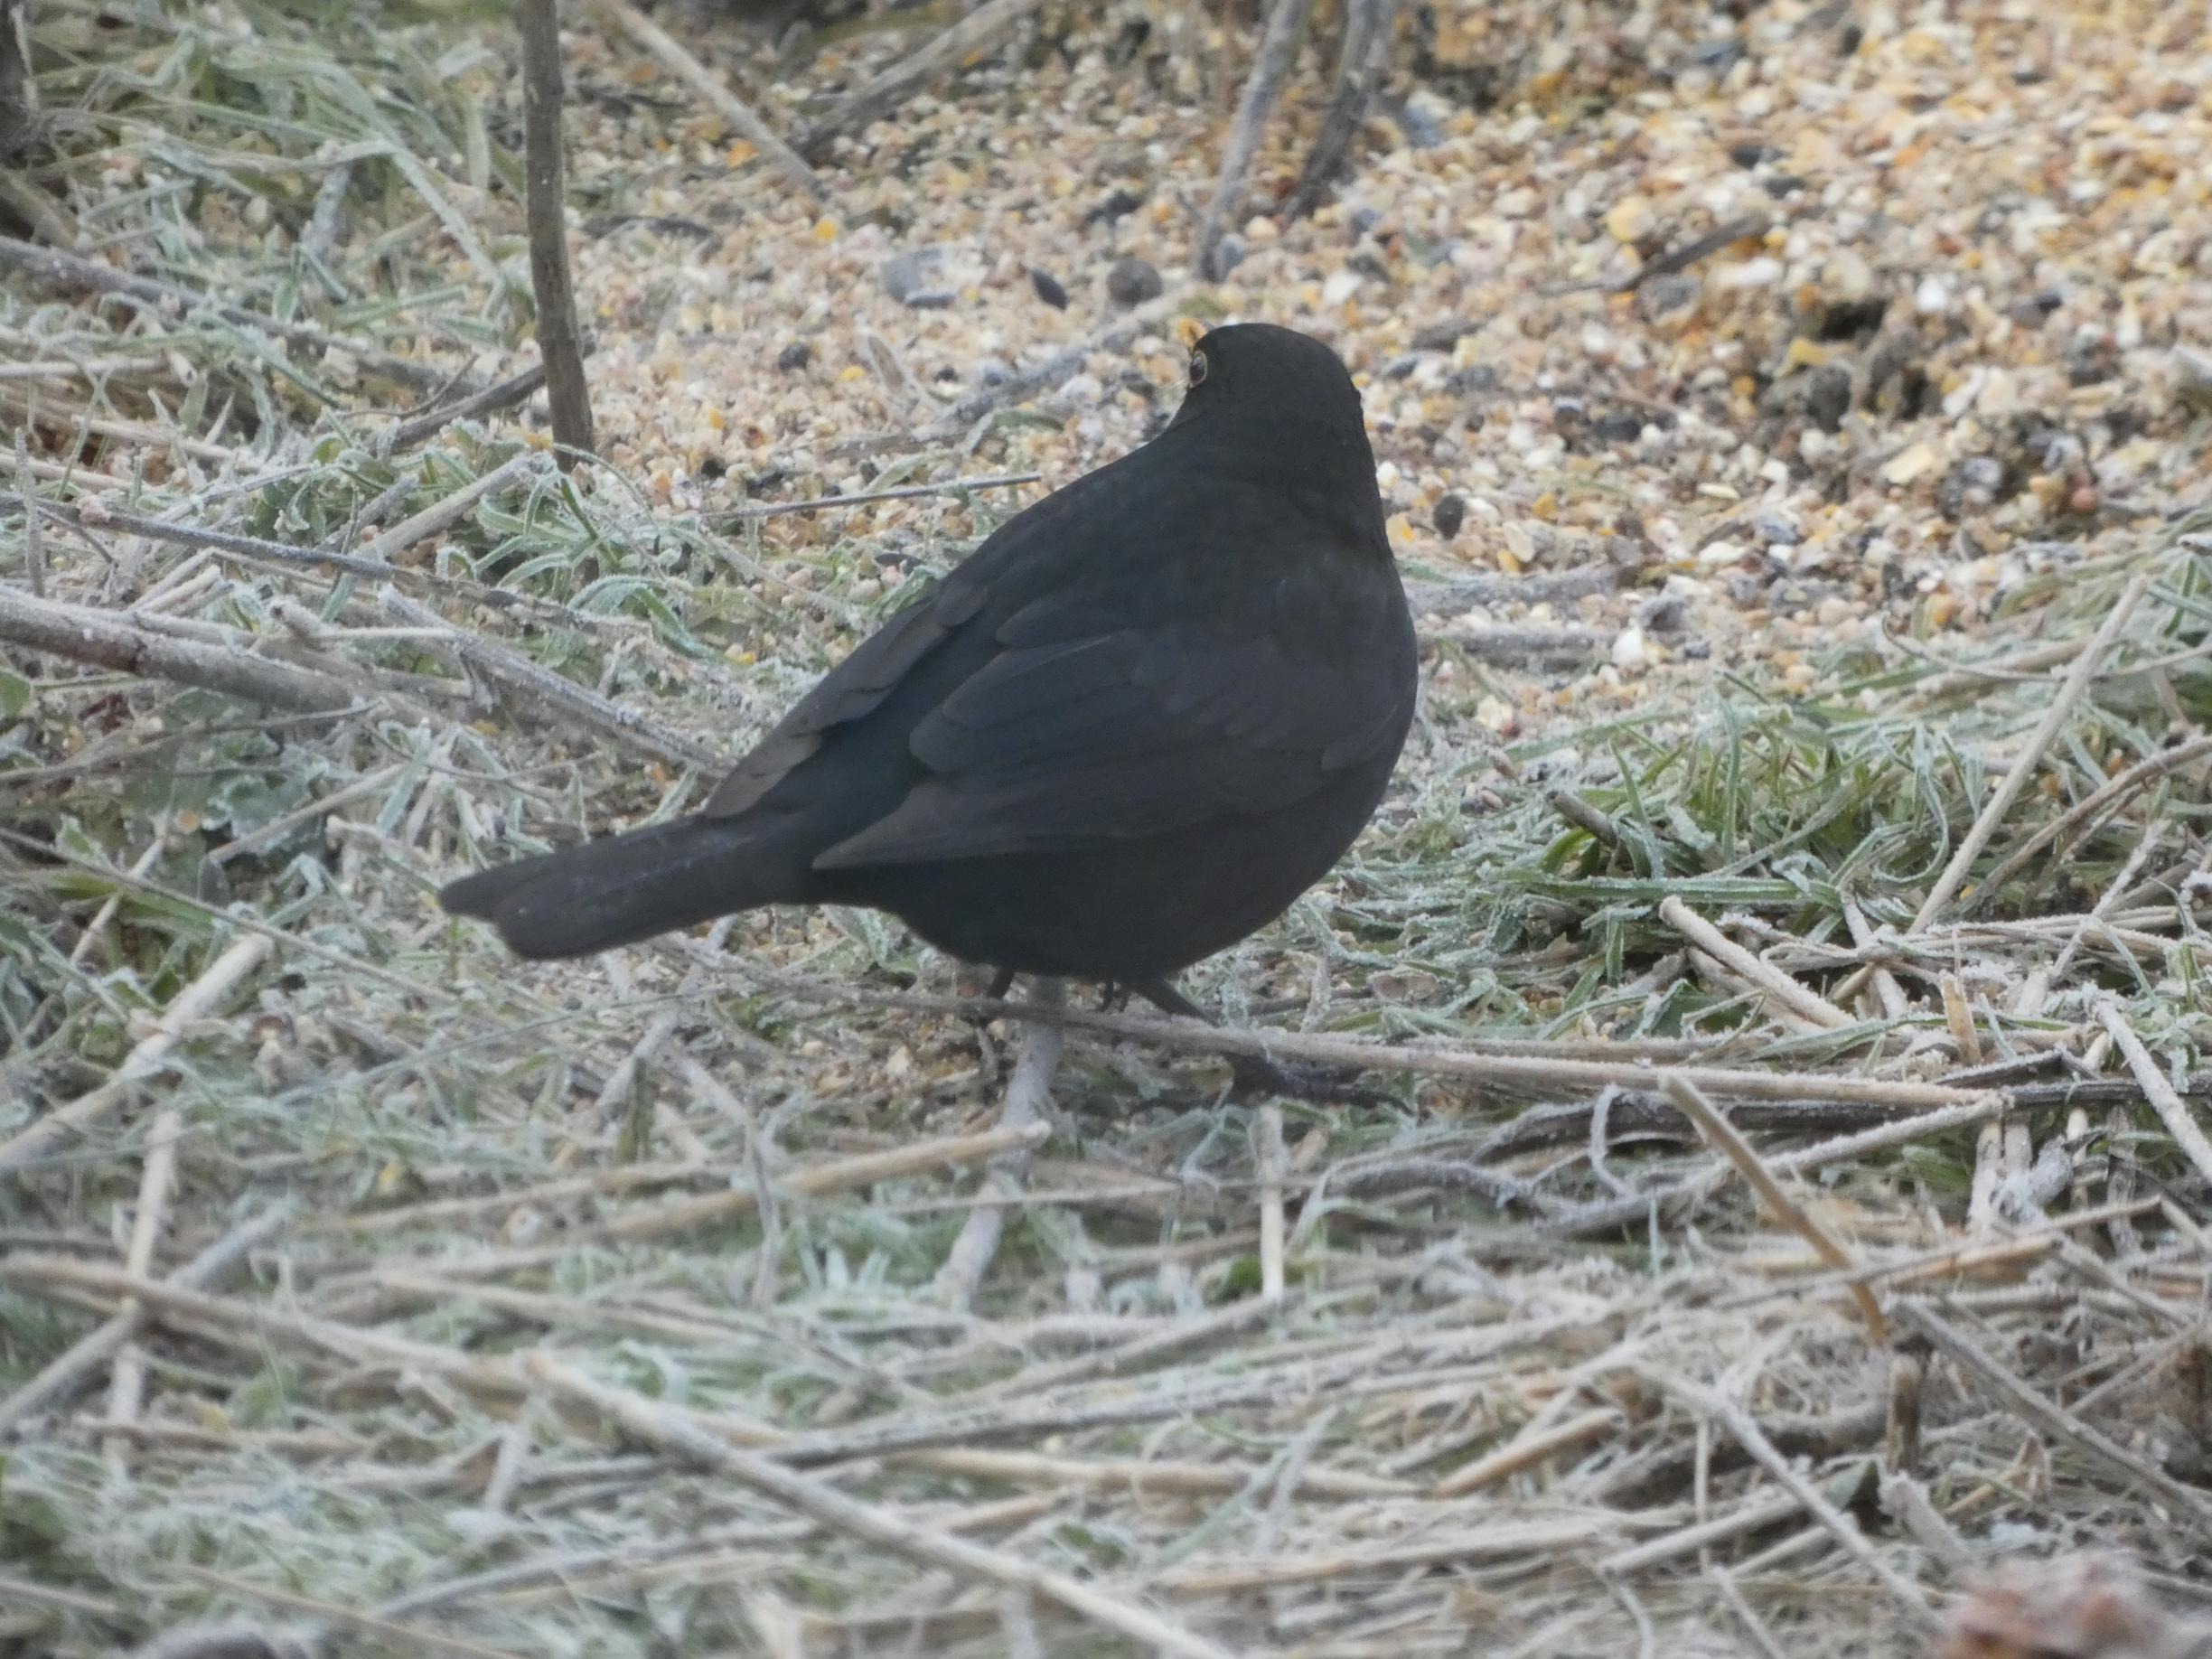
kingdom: Animalia
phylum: Chordata
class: Aves
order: Passeriformes
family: Turdidae
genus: Turdus
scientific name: Turdus merula
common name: Solsort
